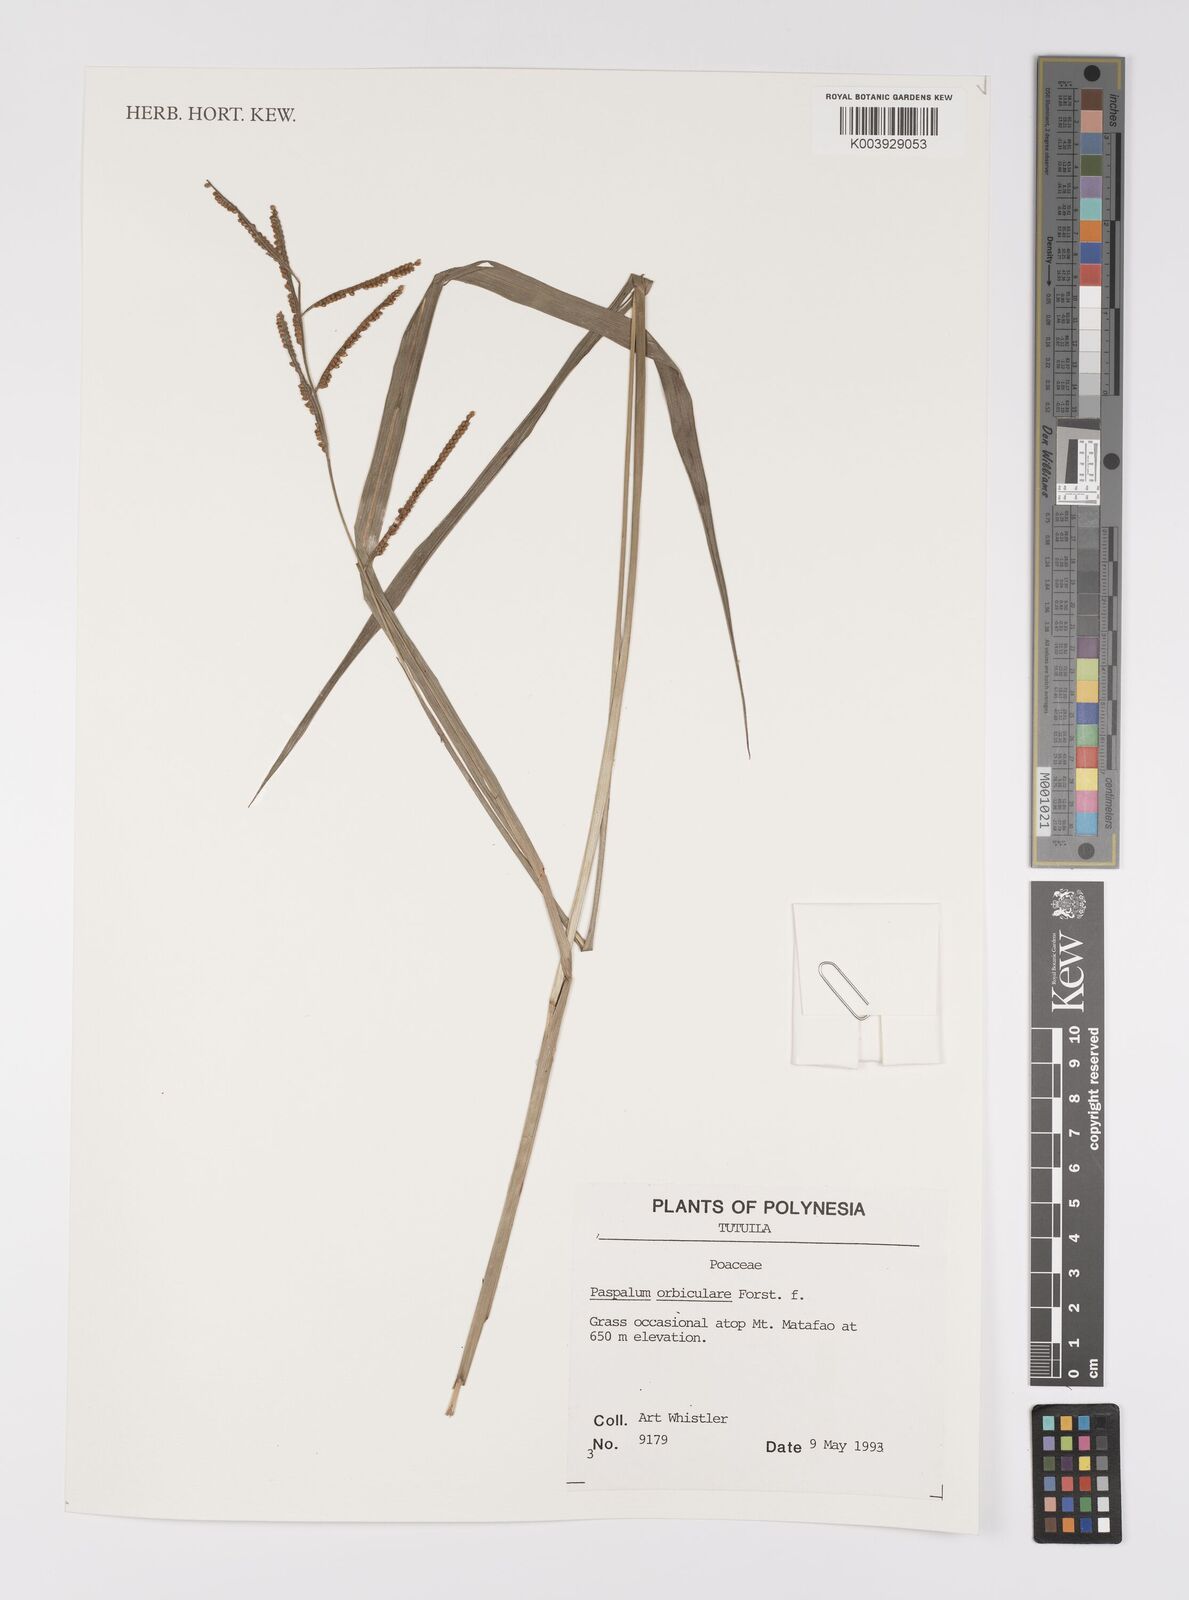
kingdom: Plantae
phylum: Tracheophyta
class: Liliopsida
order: Poales
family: Poaceae
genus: Paspalum
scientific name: Paspalum scrobiculatum
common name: Kodo millet
